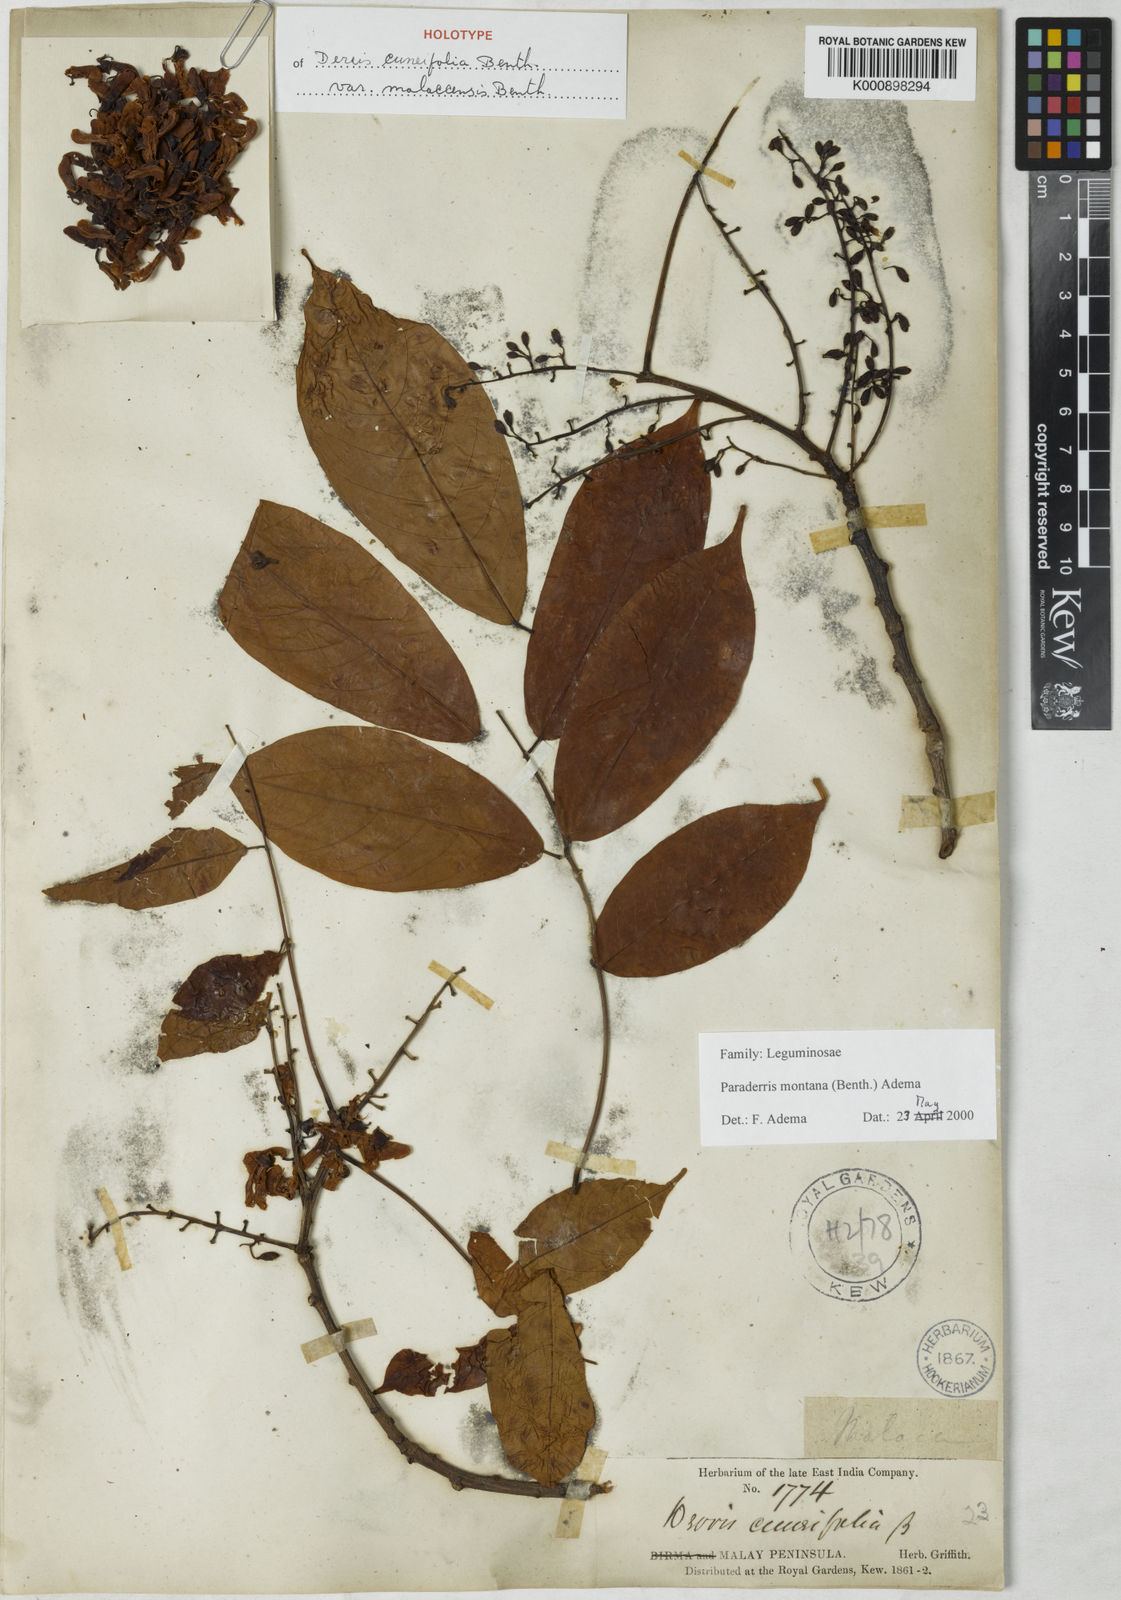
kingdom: Plantae
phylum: Tracheophyta
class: Magnoliopsida
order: Fabales
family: Fabaceae
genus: Derris
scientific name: Derris montana
